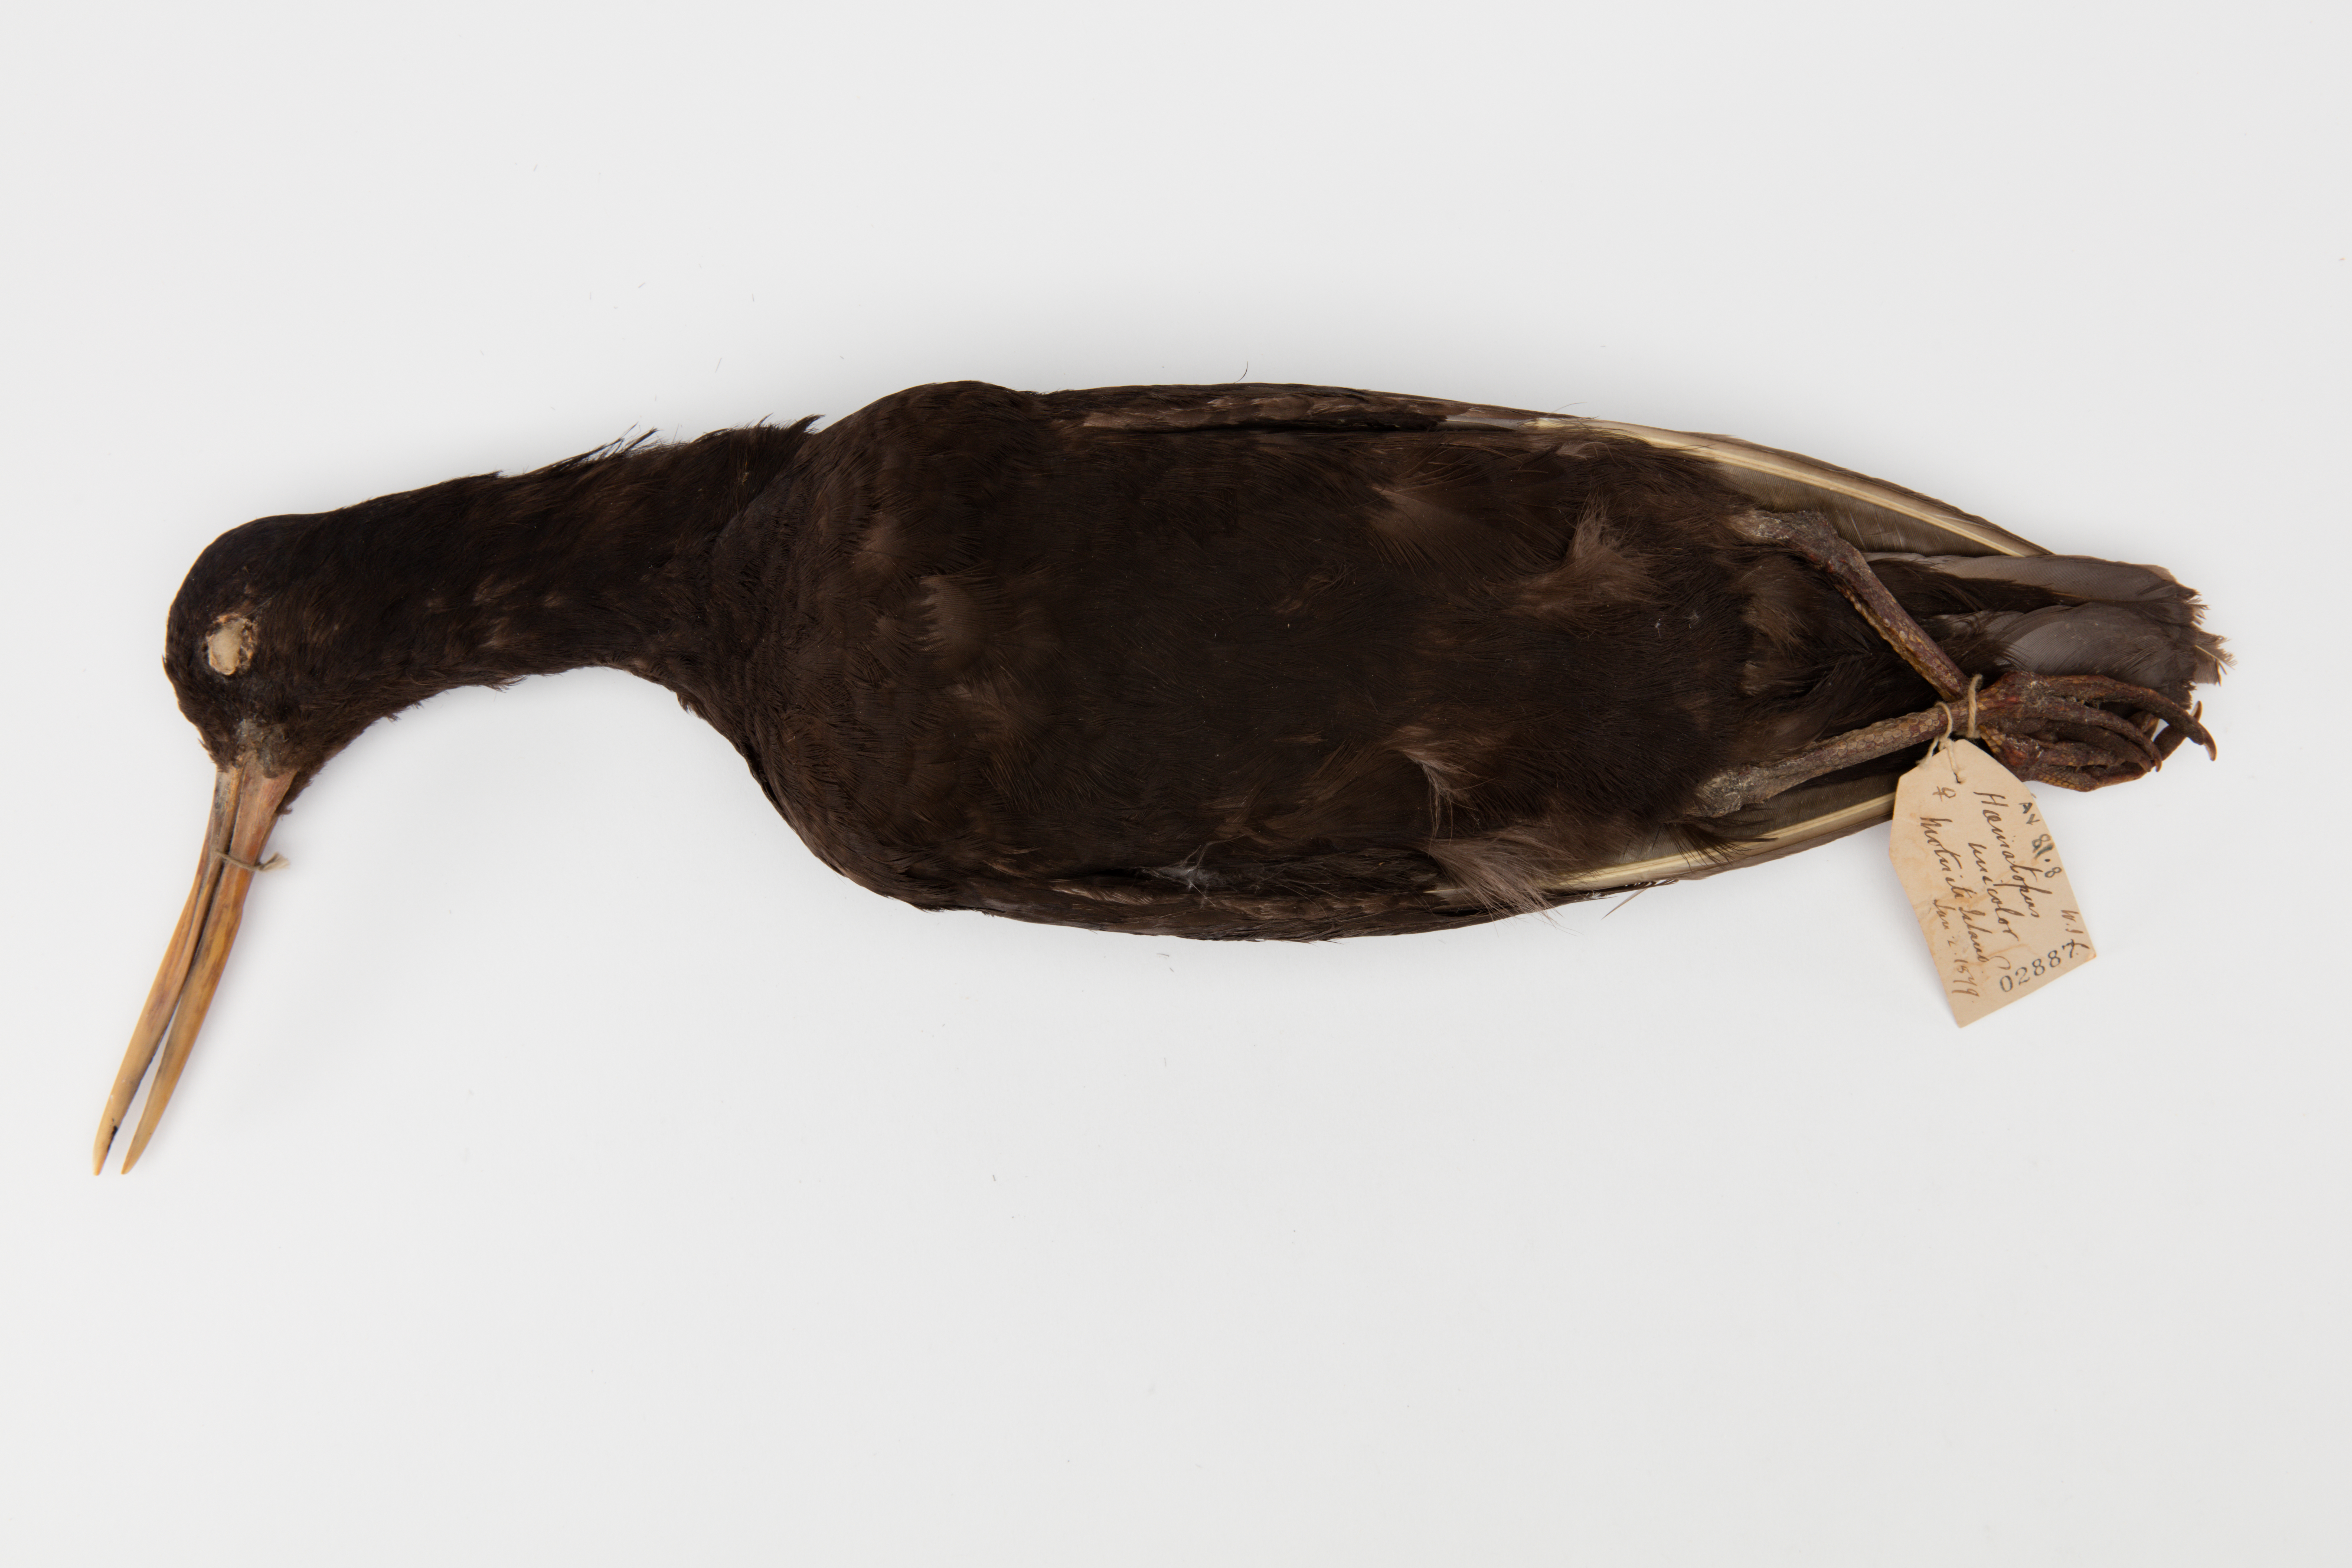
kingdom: Animalia
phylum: Chordata
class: Aves
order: Charadriiformes
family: Haematopodidae
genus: Haematopus
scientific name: Haematopus unicolor
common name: Variable oystercatcher
